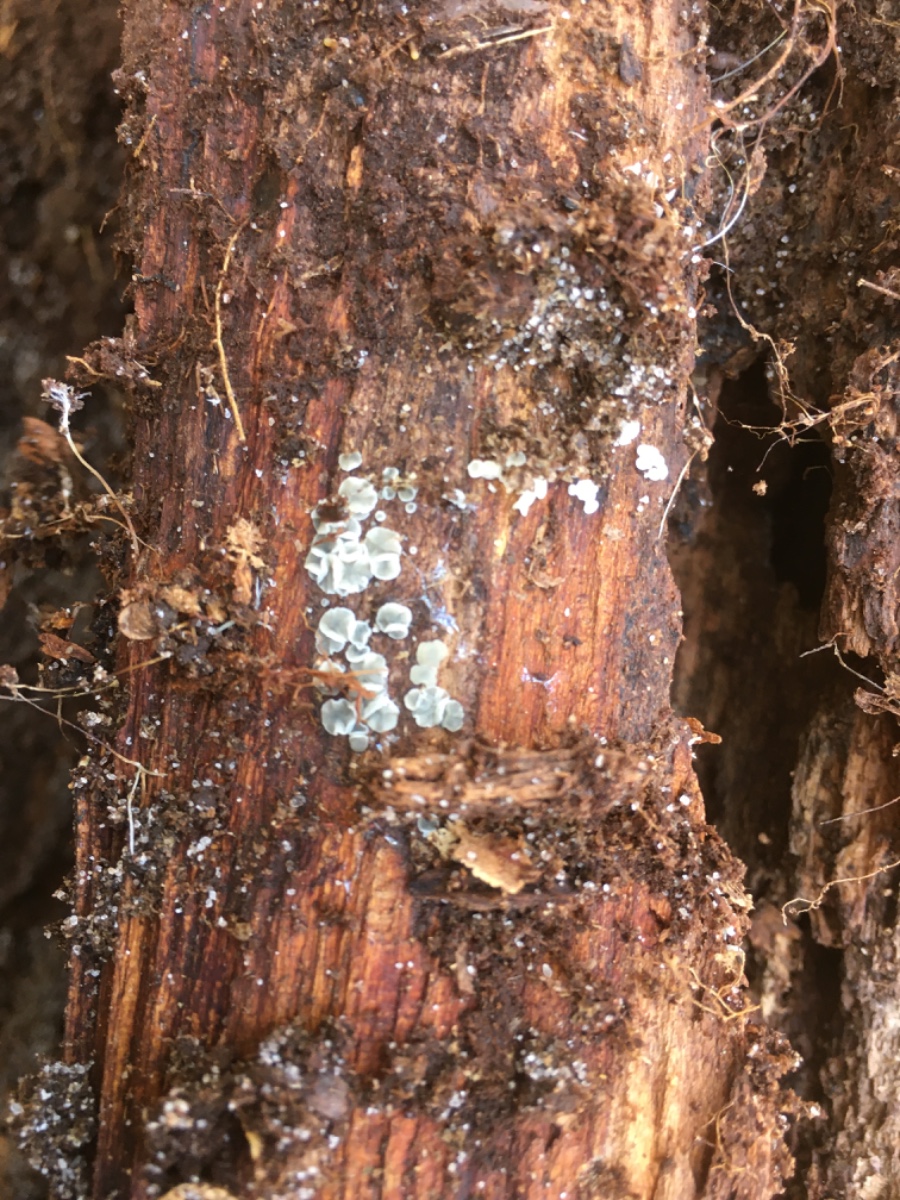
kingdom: Fungi
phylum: Ascomycota
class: Leotiomycetes
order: Helotiales
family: Mollisiaceae
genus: Mollisia
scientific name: Mollisia
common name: gråskive
